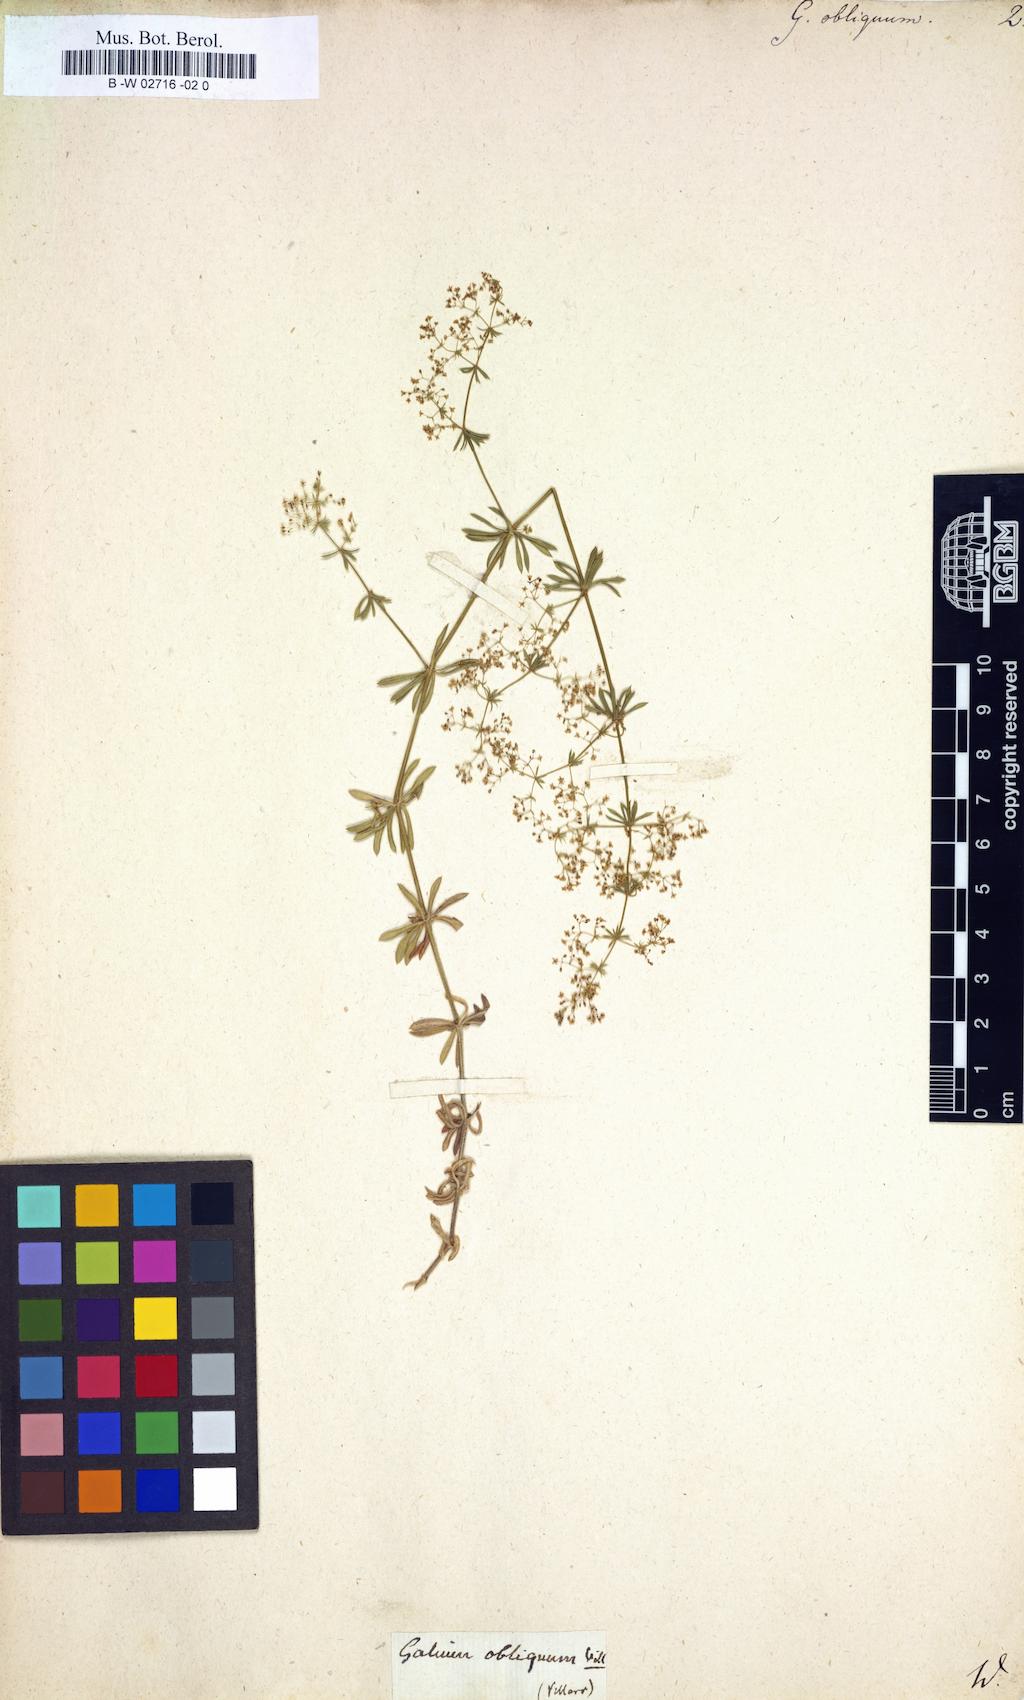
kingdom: Plantae
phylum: Tracheophyta
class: Magnoliopsida
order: Gentianales
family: Rubiaceae
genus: Galium
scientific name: Galium obliquum
